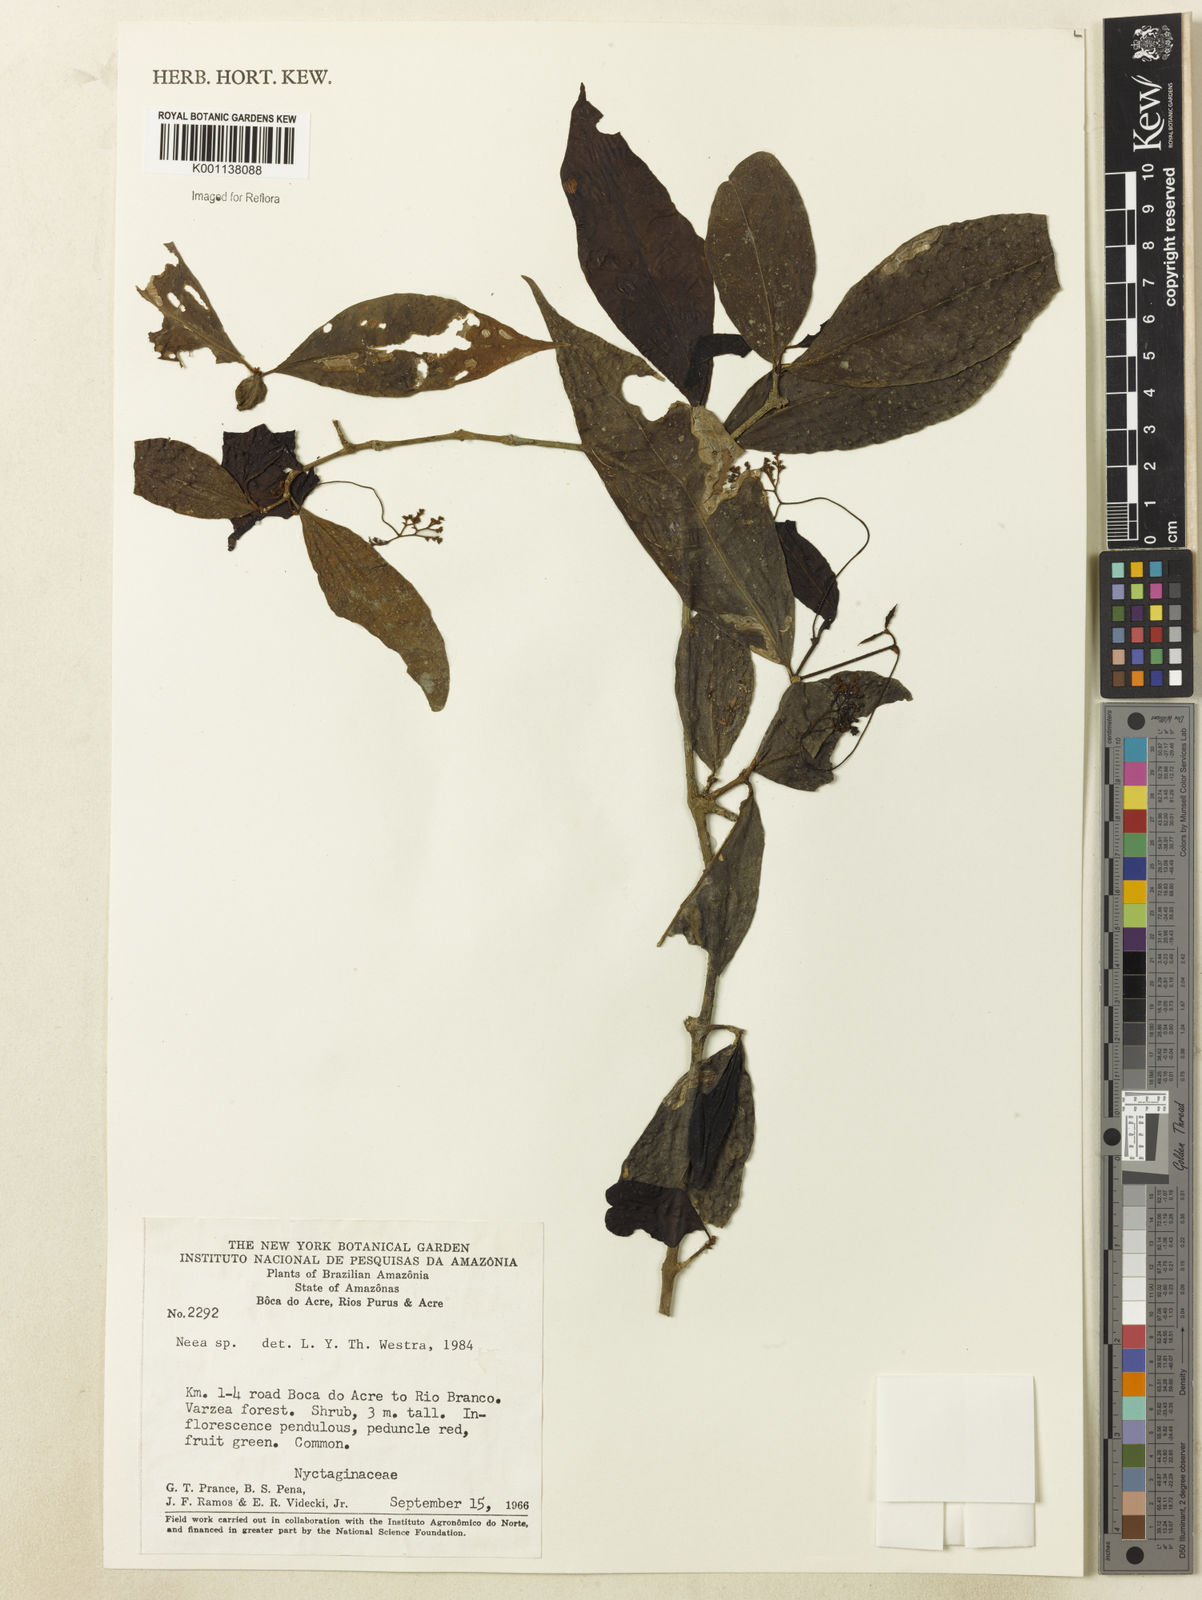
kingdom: Plantae
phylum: Tracheophyta
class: Magnoliopsida
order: Caryophyllales
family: Nyctaginaceae
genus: Neea
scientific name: Neea
